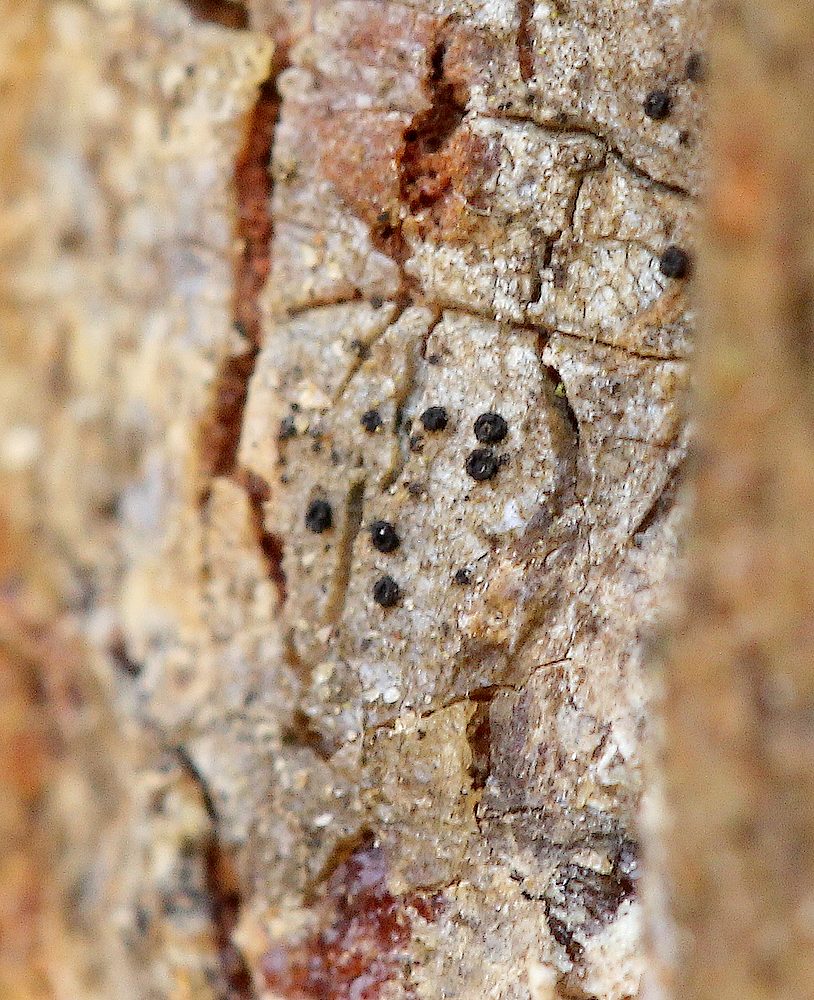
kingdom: Fungi
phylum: Ascomycota
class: Leotiomycetes
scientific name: Leotiomycetes
